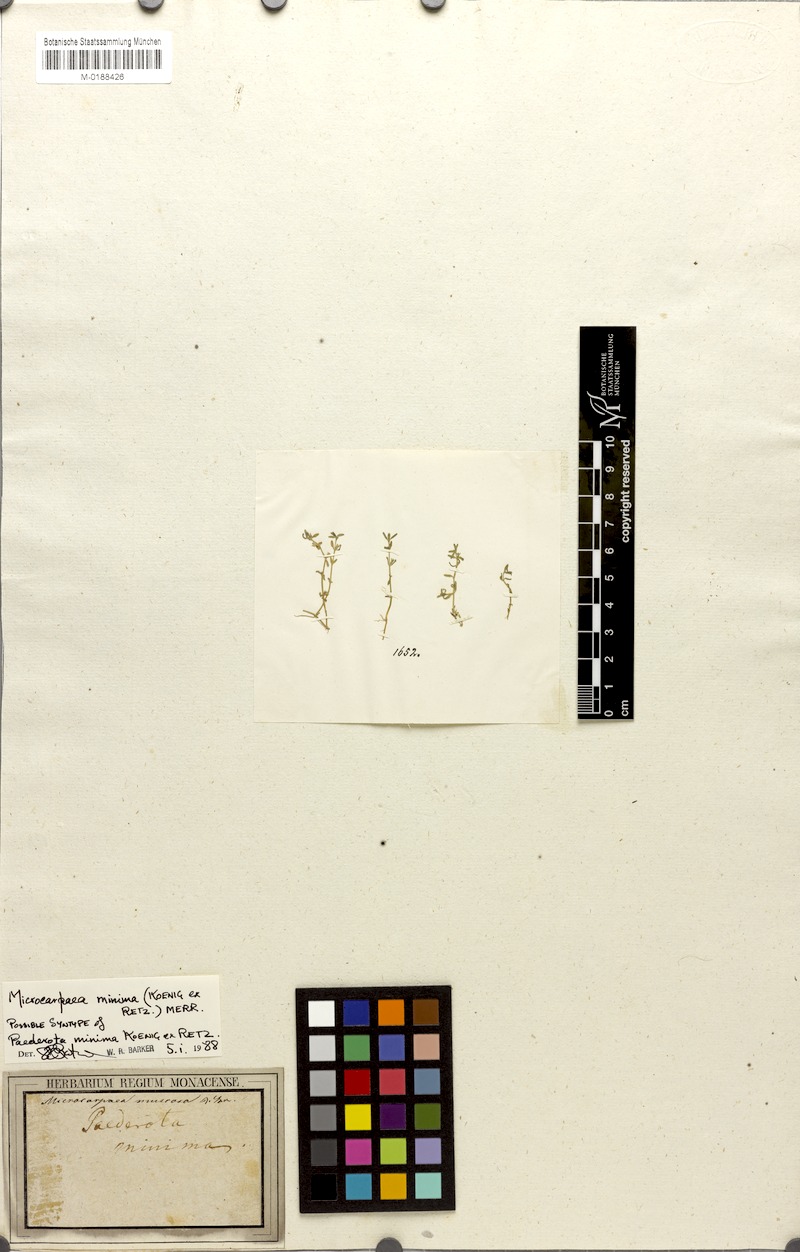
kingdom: Plantae
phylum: Tracheophyta
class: Magnoliopsida
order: Lamiales
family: Phrymaceae
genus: Microcarpaea
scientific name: Microcarpaea minima
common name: Chickweed sparrow
